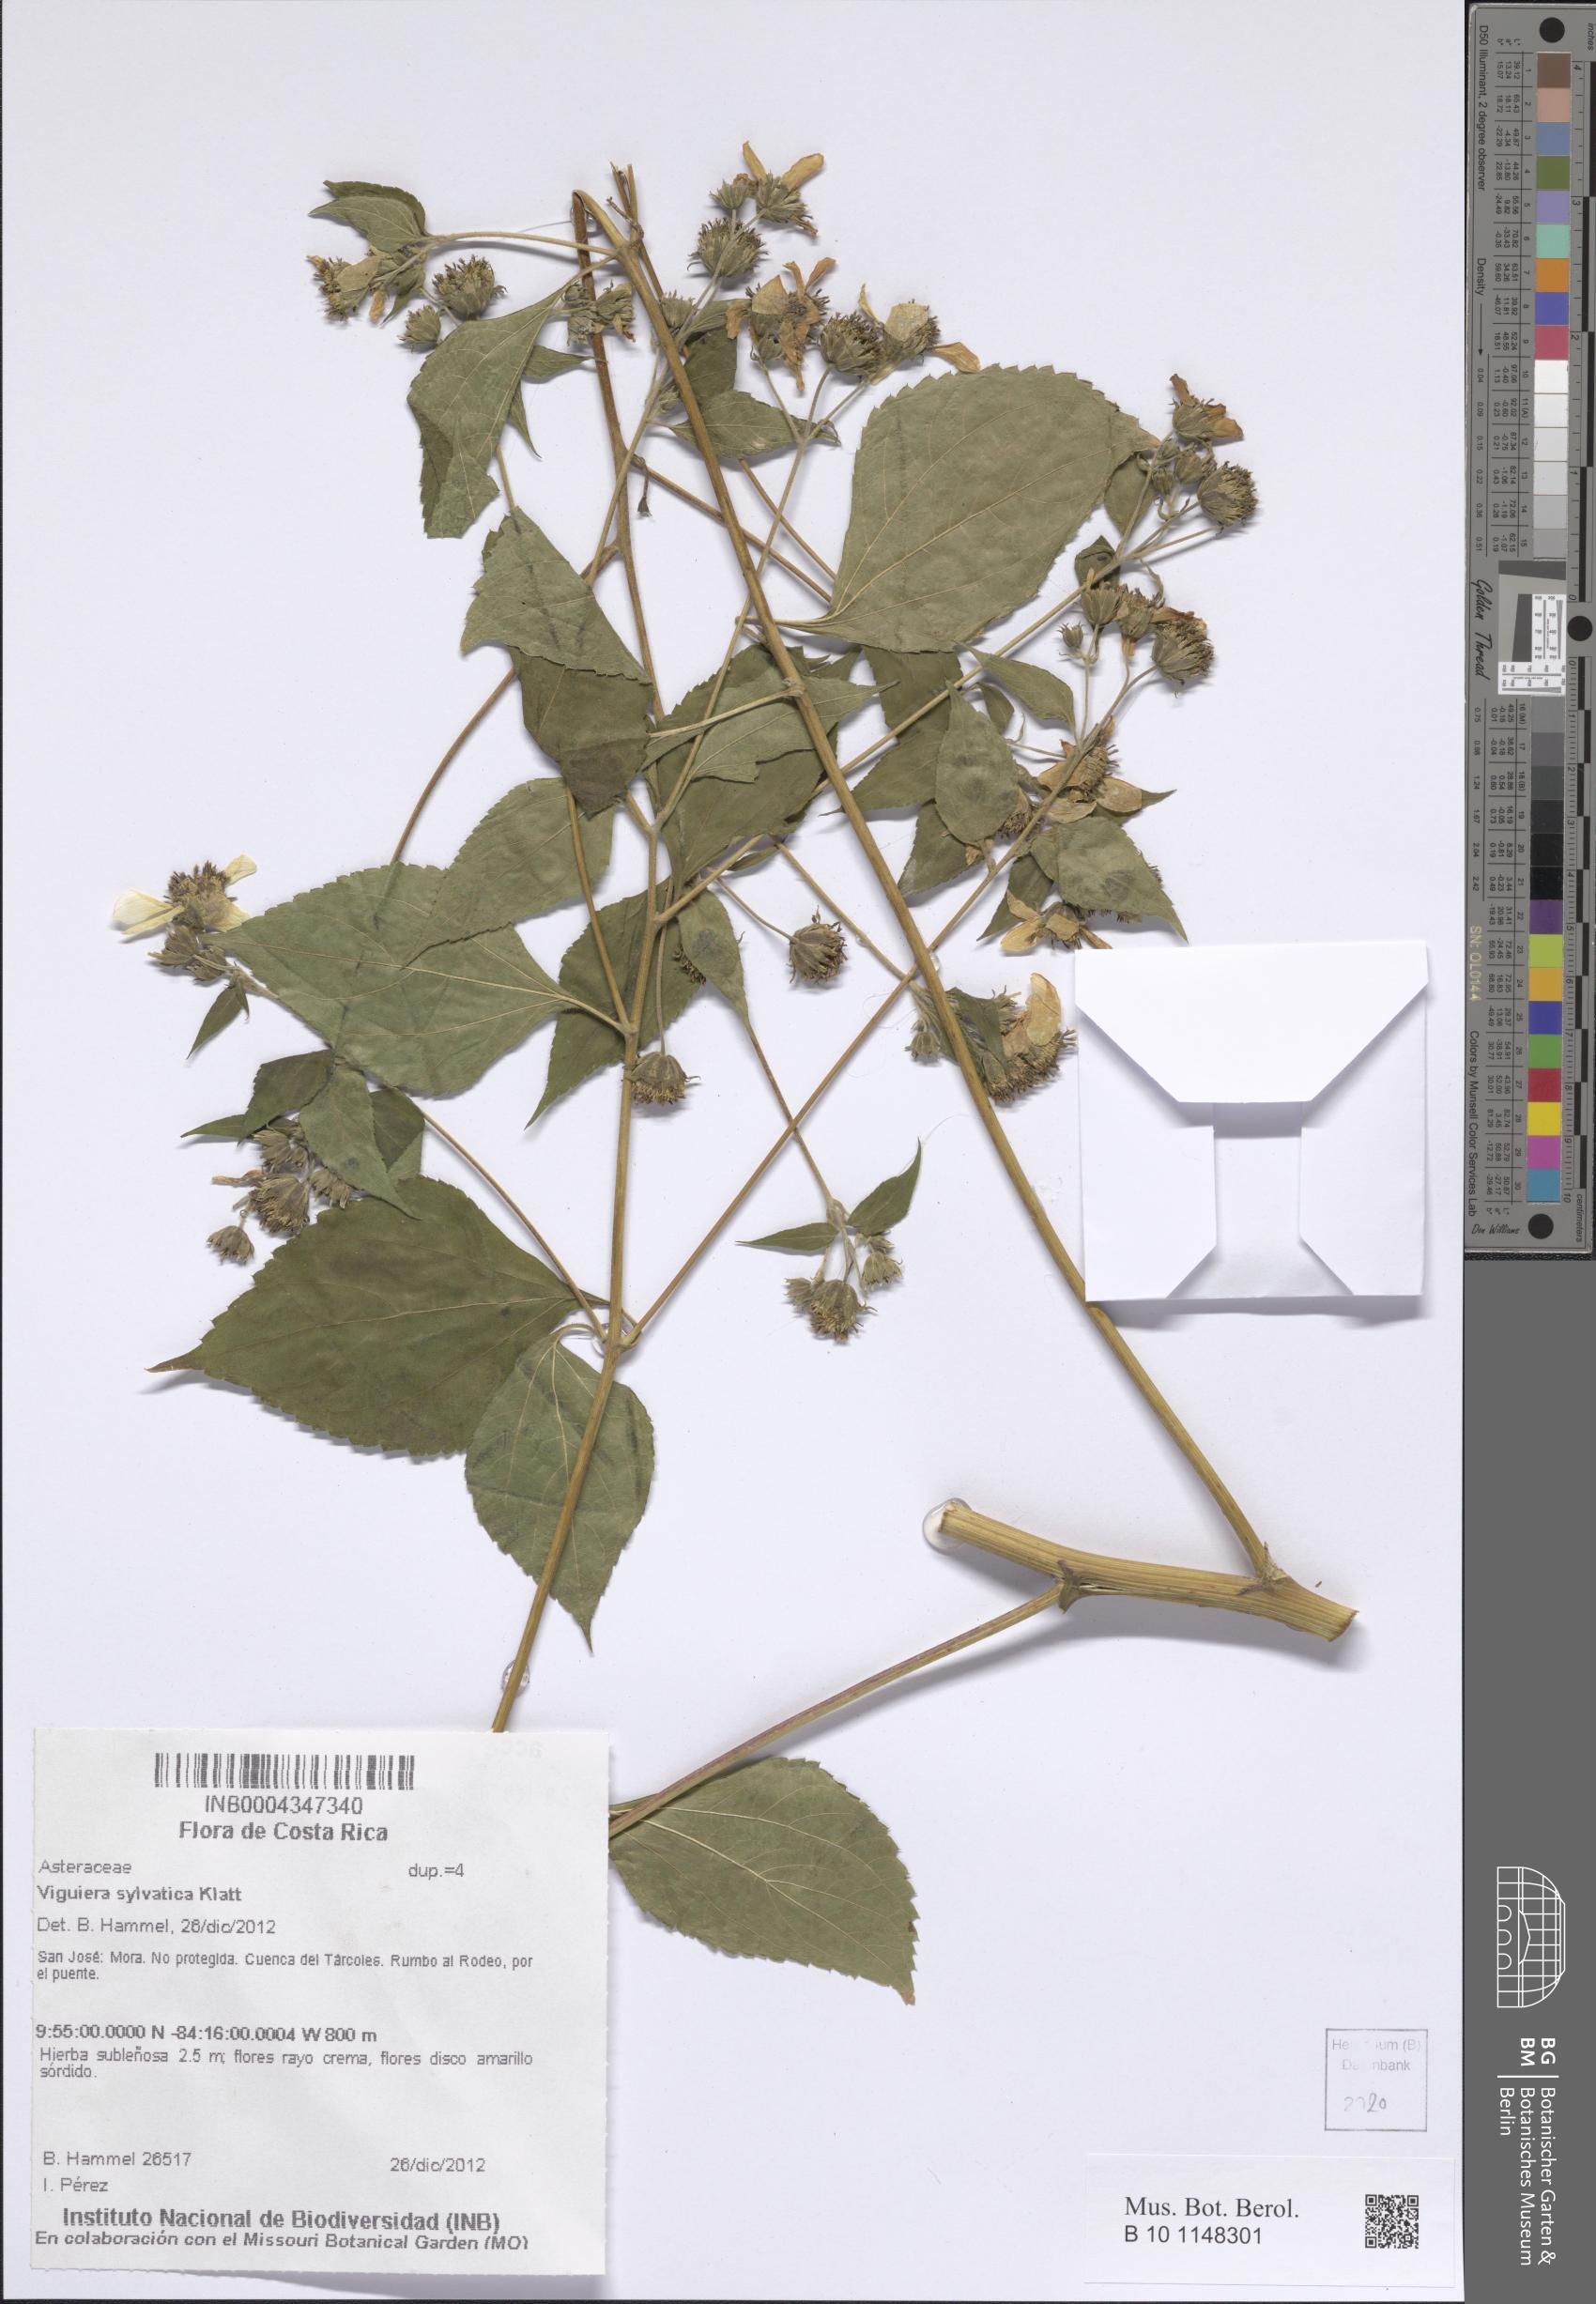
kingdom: Plantae
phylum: Tracheophyta
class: Magnoliopsida
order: Asterales
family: Asteraceae
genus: Dendroviguiera
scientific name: Dendroviguiera sylvatica
